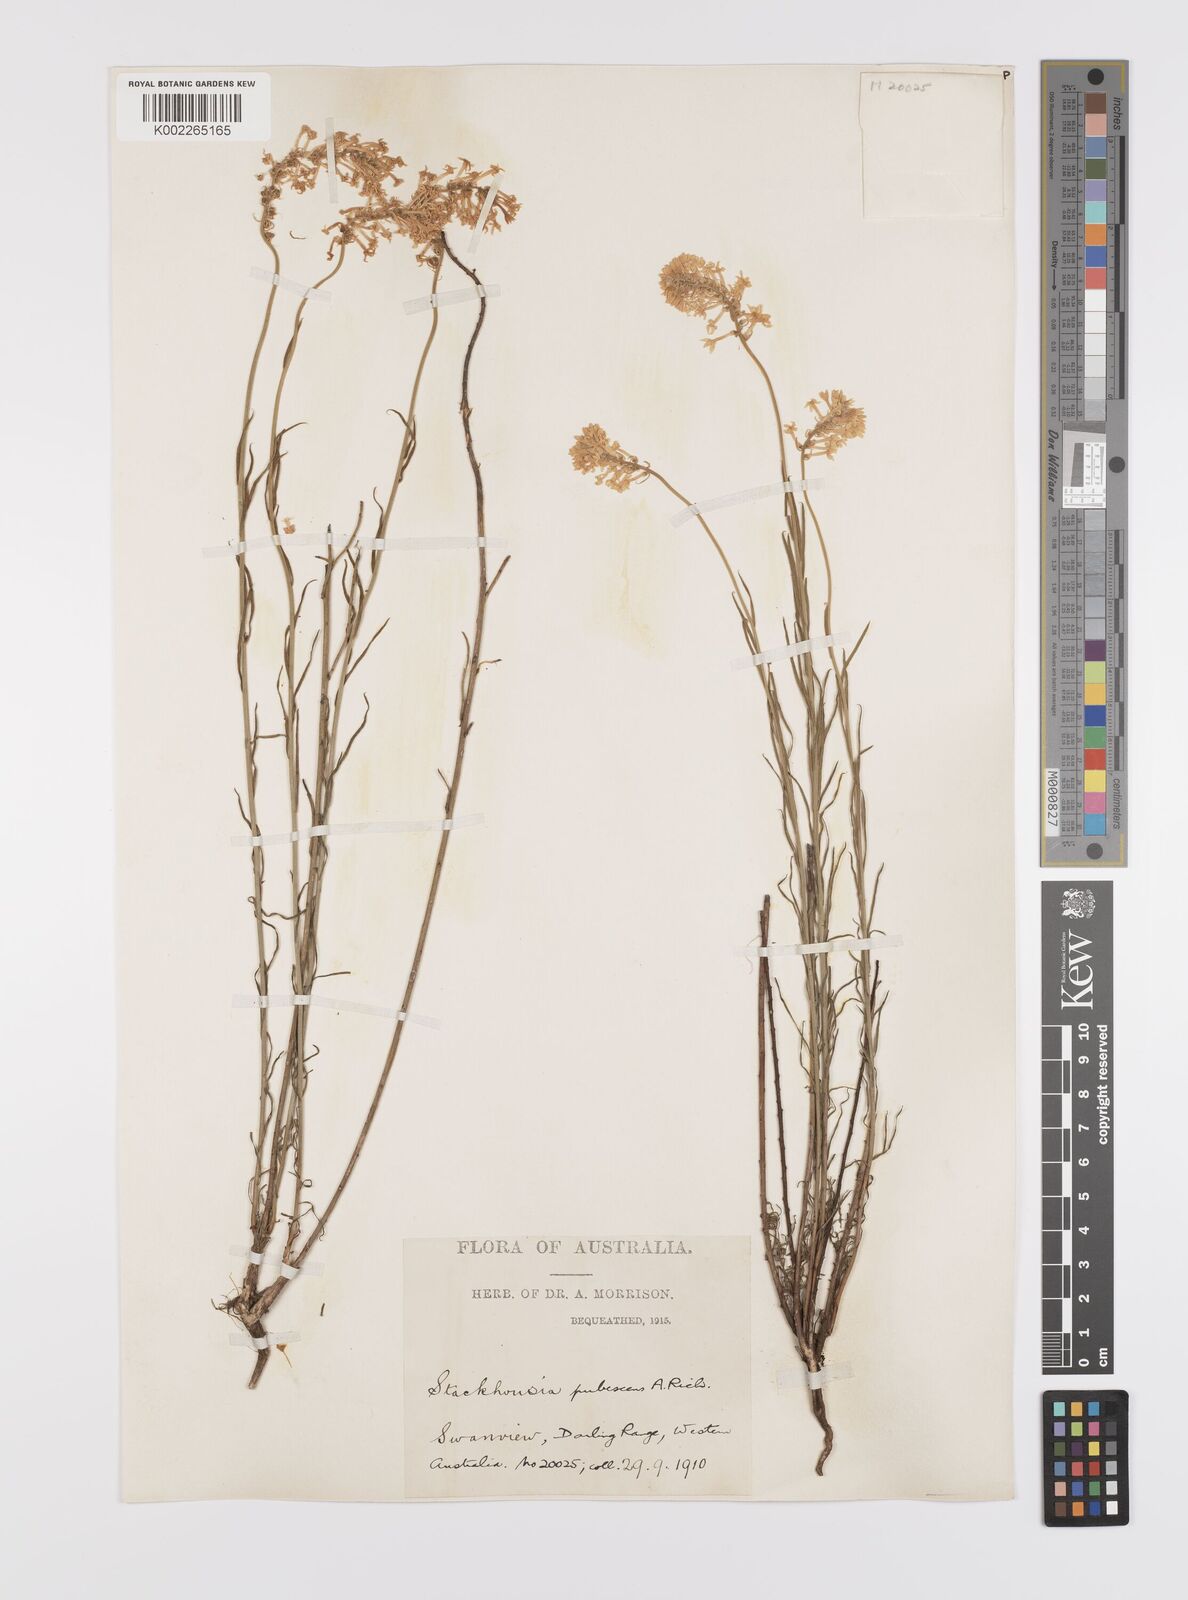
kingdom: Plantae
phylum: Tracheophyta
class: Magnoliopsida
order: Celastrales
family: Celastraceae
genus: Stackhousia
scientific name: Stackhousia monogyna
